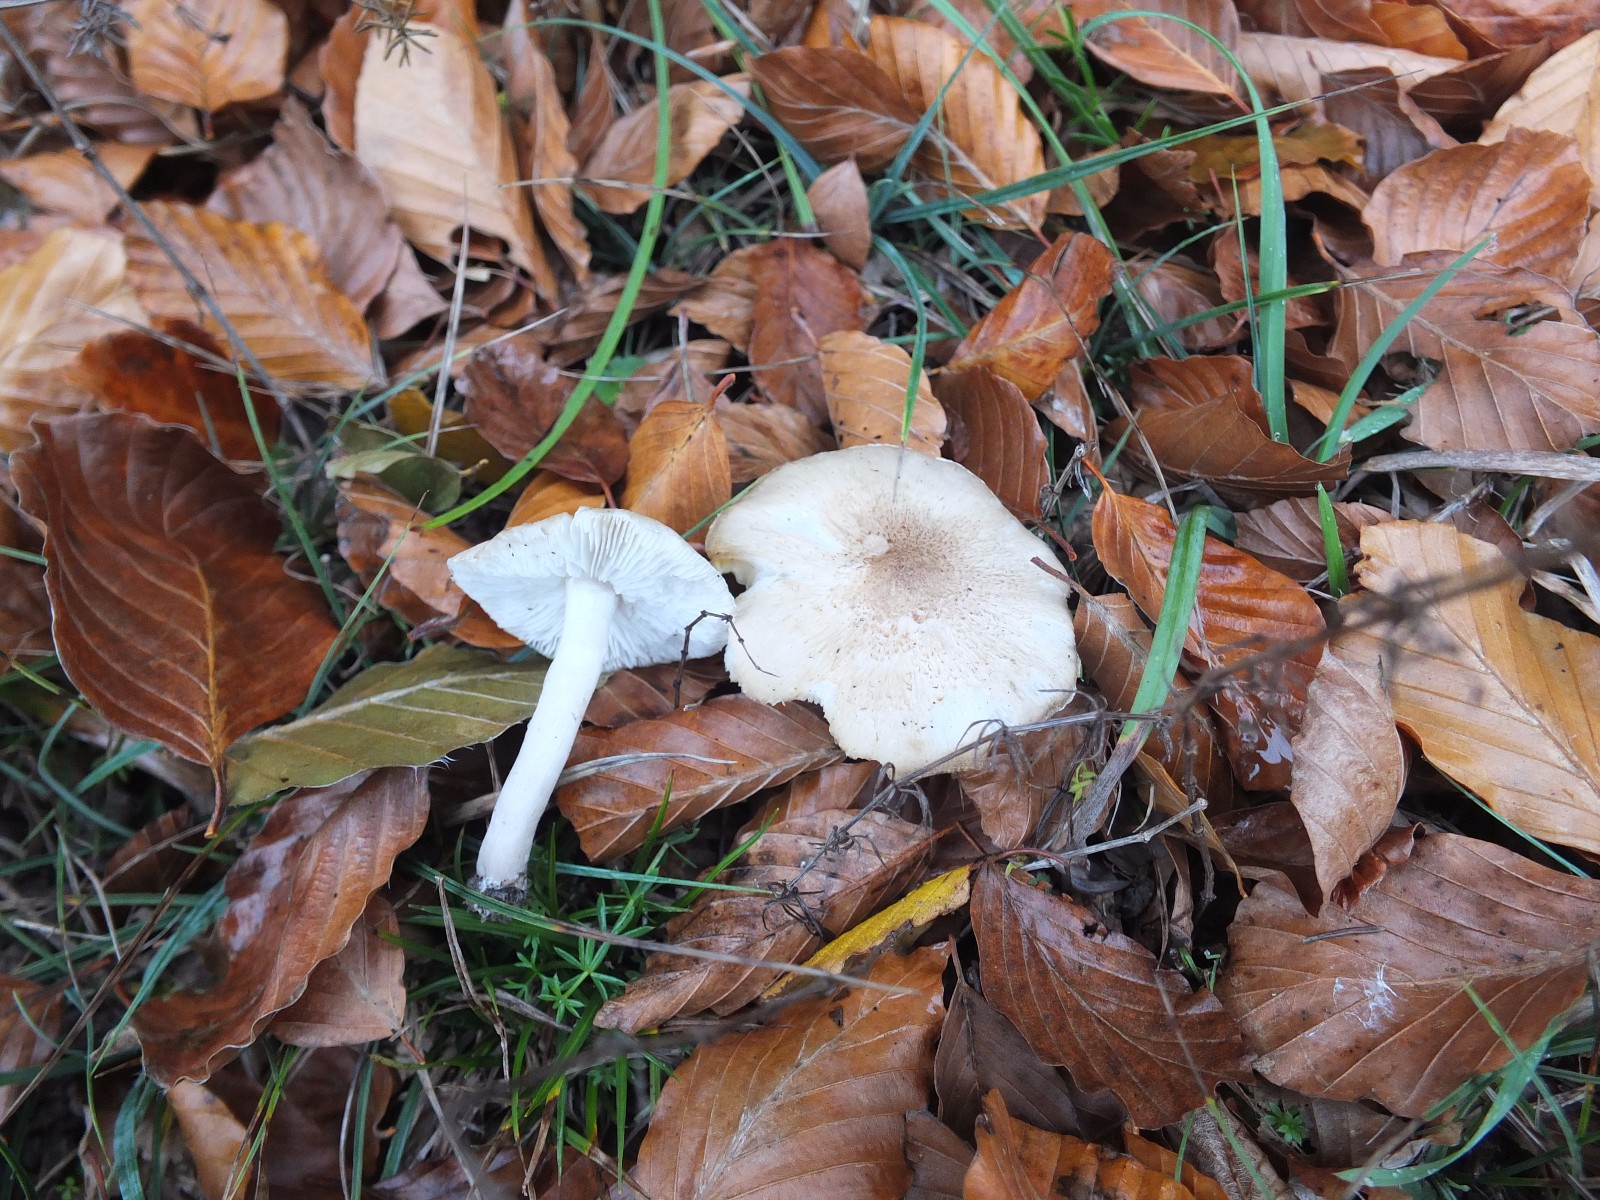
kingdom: Fungi
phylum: Basidiomycota
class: Agaricomycetes
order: Agaricales
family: Tricholomataceae
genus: Tricholoma
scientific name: Tricholoma
